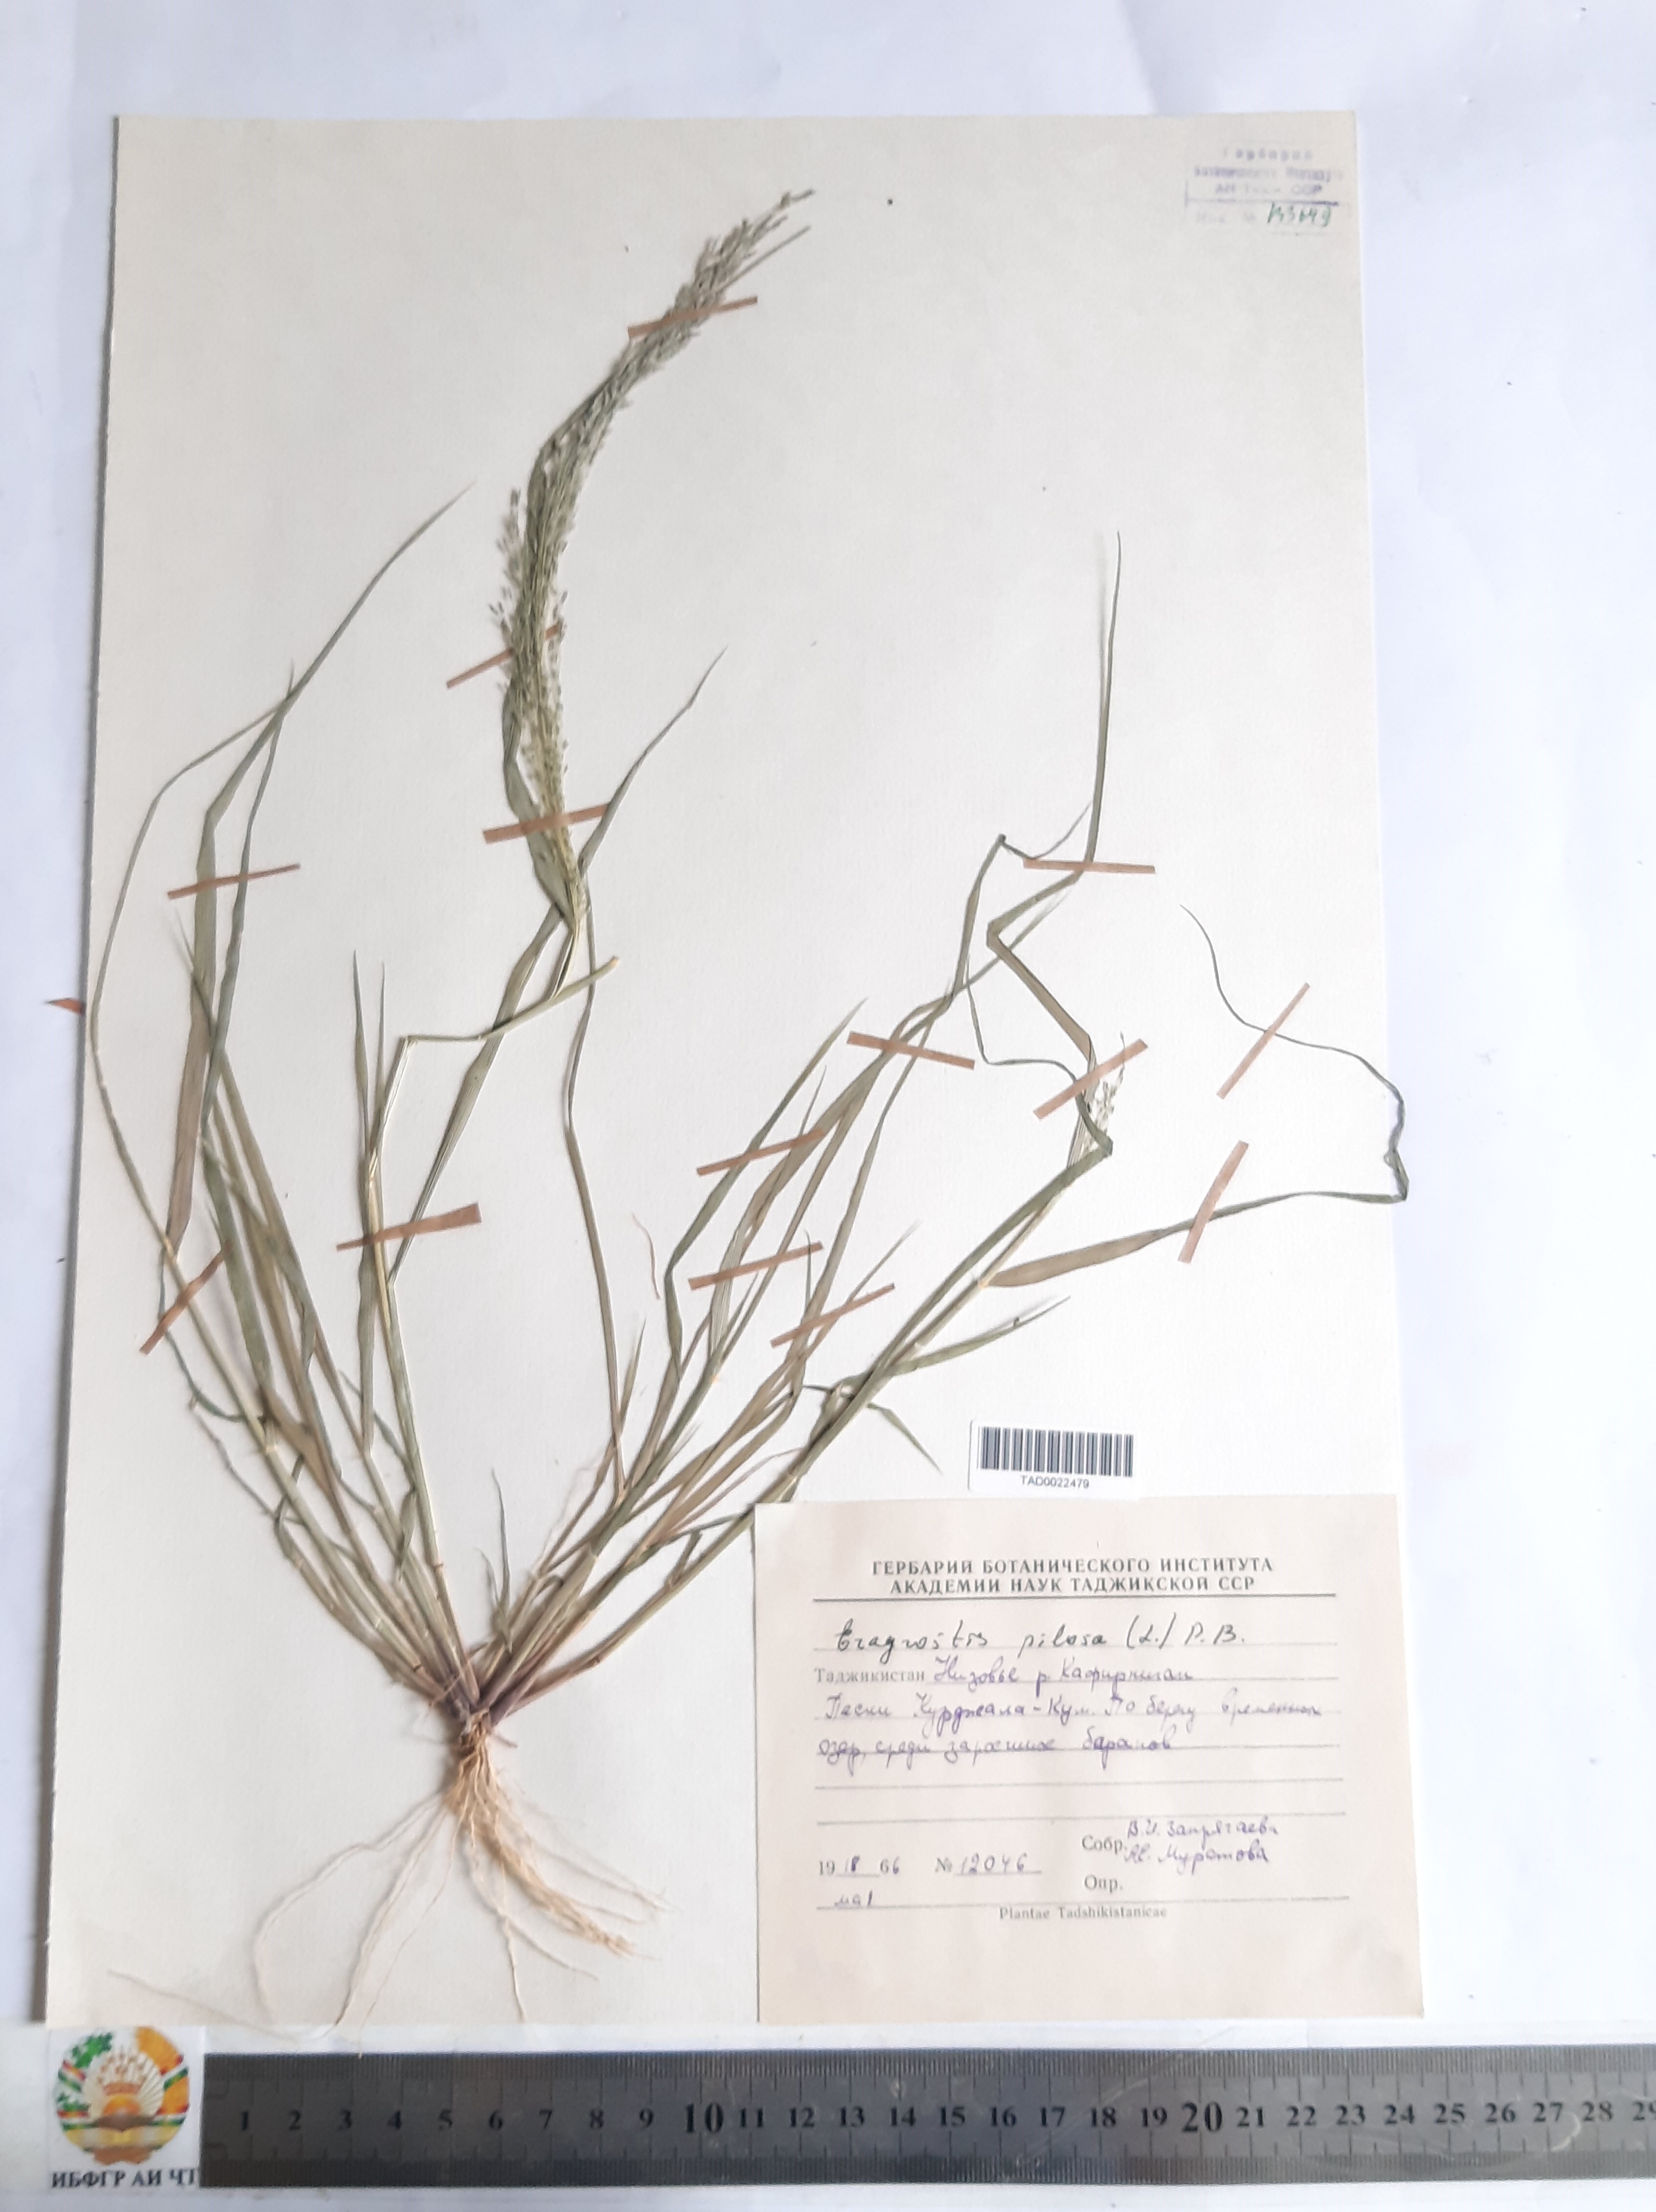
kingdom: Plantae
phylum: Tracheophyta
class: Liliopsida
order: Poales
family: Poaceae
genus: Eragrostis
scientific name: Eragrostis pilosa
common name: Indian lovegrass
